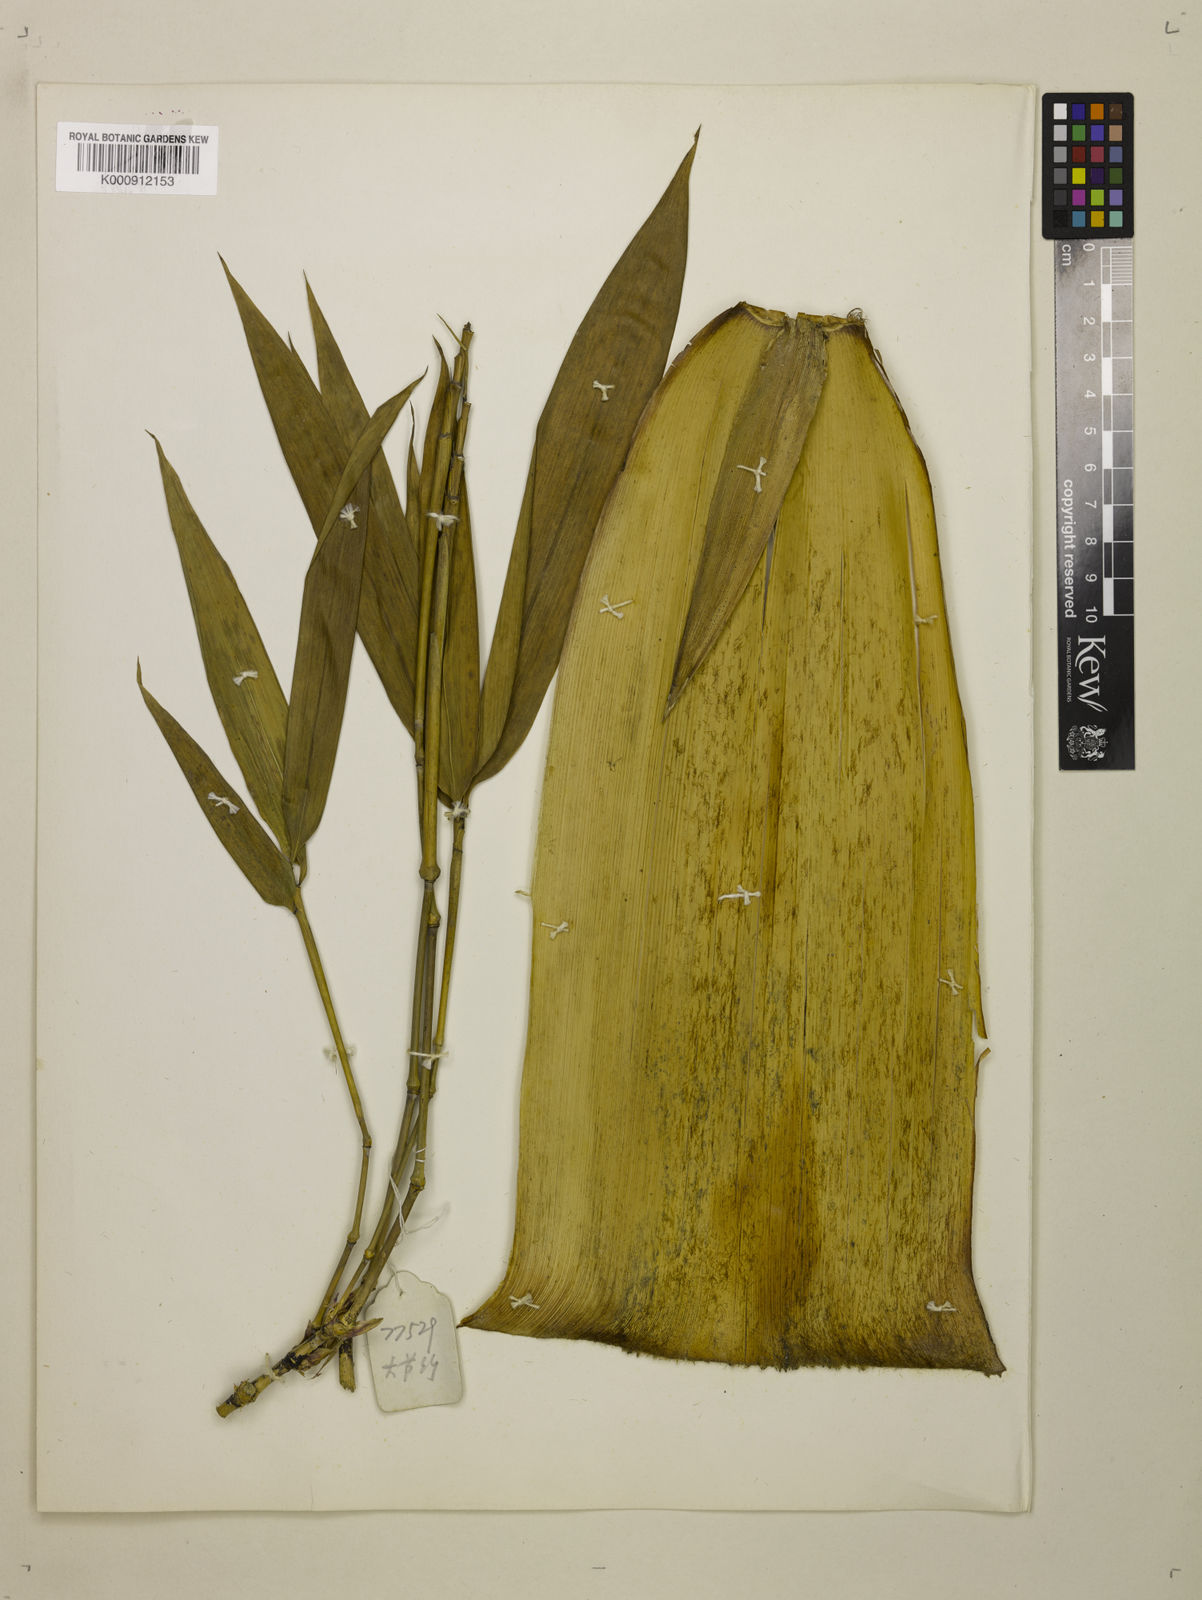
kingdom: Plantae
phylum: Tracheophyta
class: Liliopsida
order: Poales
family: Poaceae
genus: Indosasa
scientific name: Indosasa sinica
